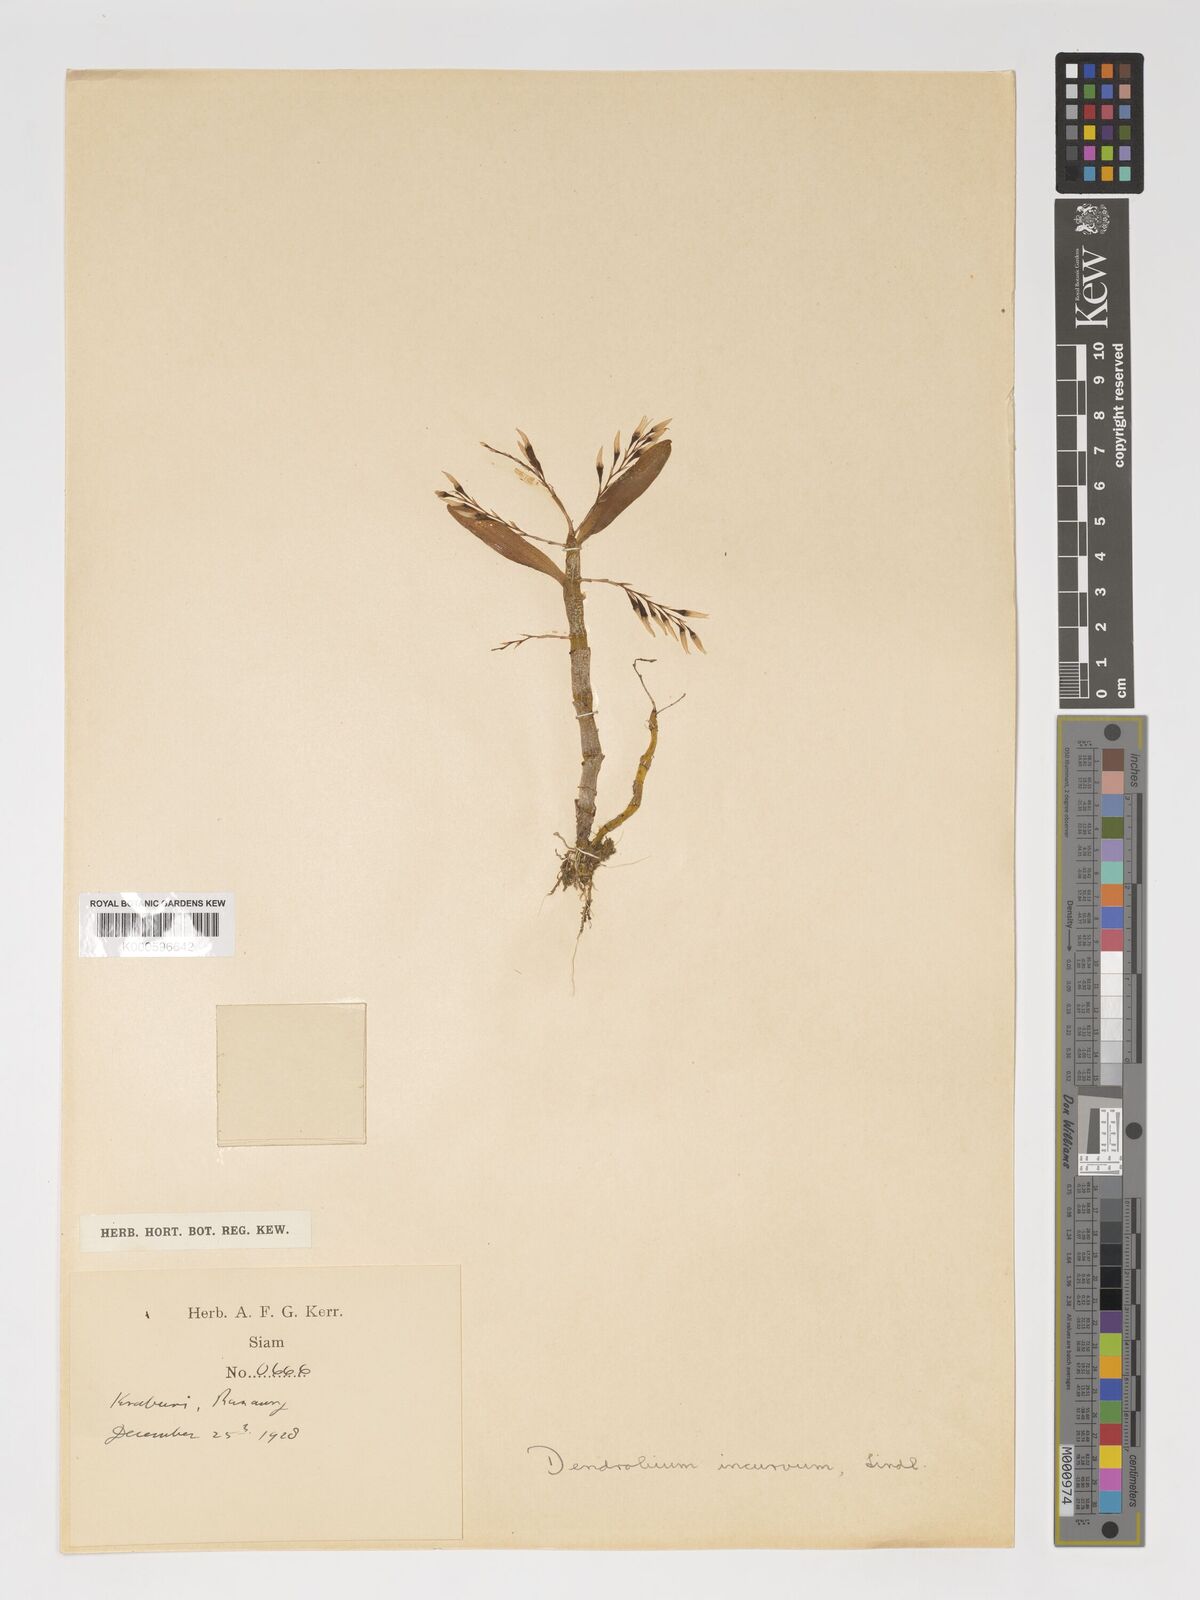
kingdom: Plantae
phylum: Tracheophyta
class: Liliopsida
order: Asparagales
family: Orchidaceae
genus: Dendrobium
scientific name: Dendrobium incurvum
